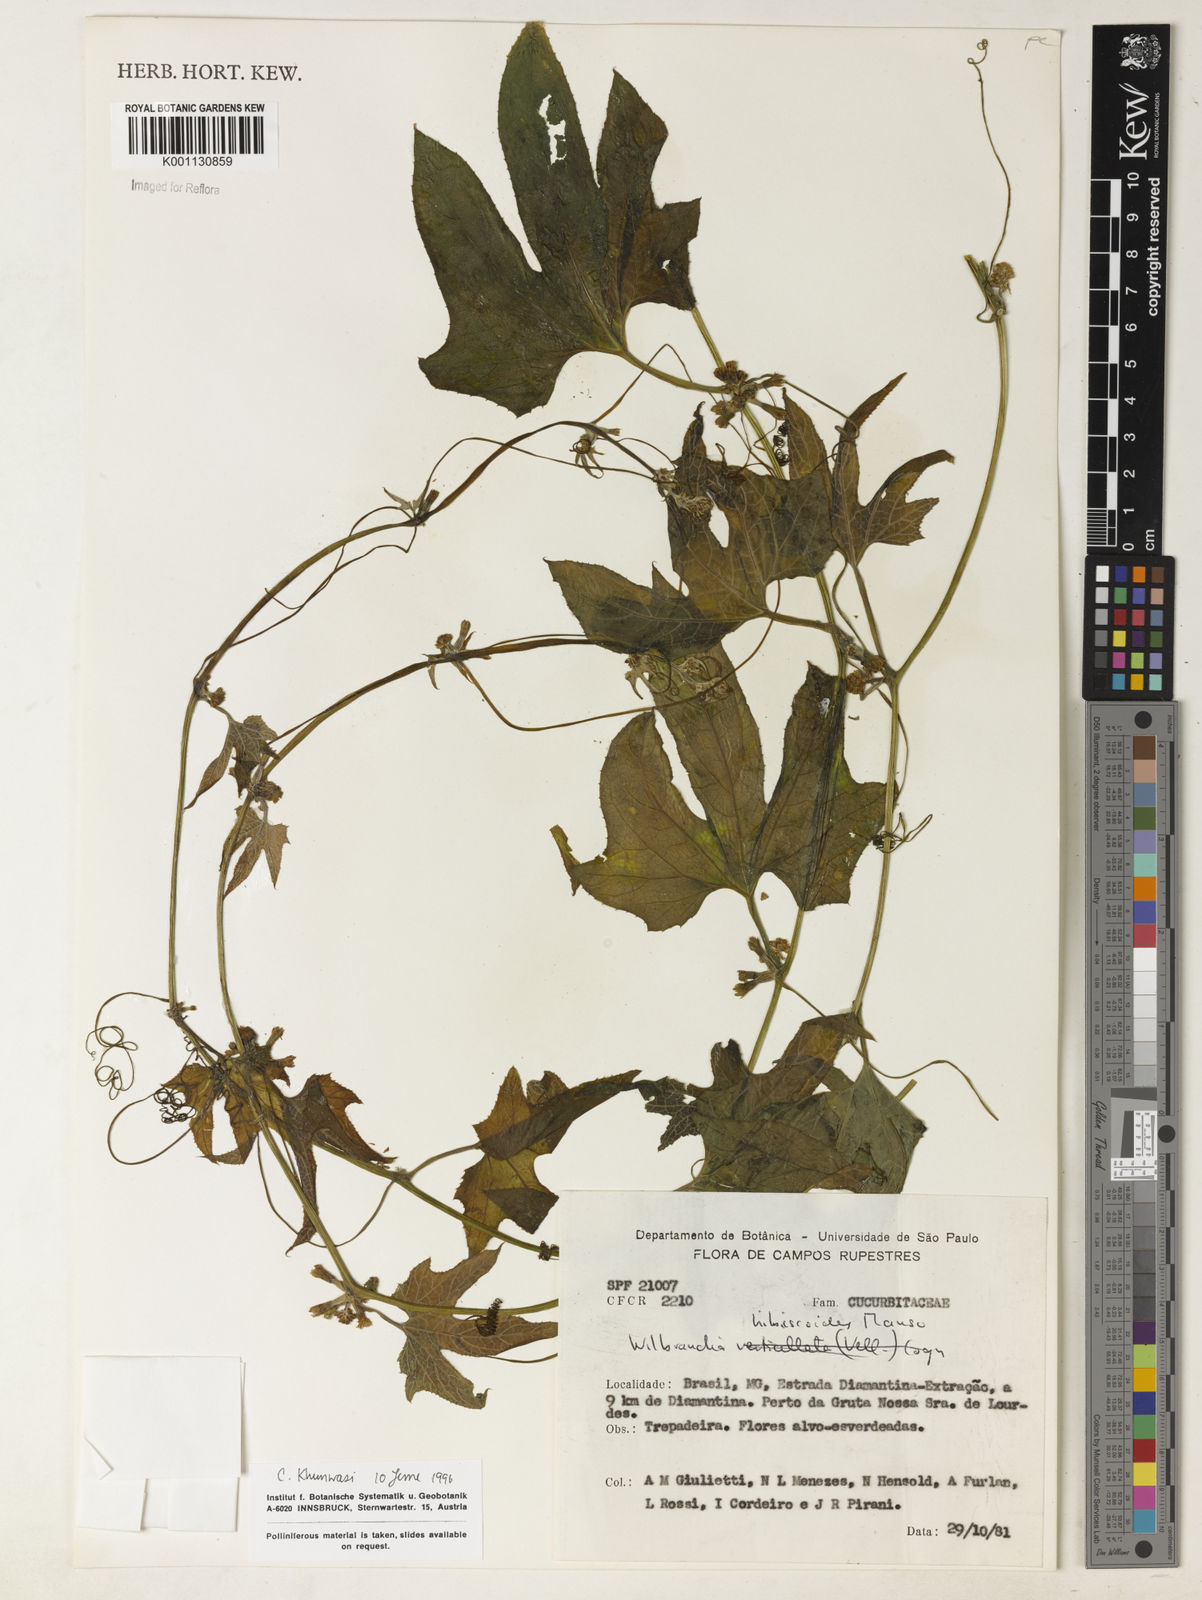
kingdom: Plantae
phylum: Tracheophyta
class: Magnoliopsida
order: Cucurbitales
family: Cucurbitaceae
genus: Wilbrandia
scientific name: Wilbrandia hibiscoides
